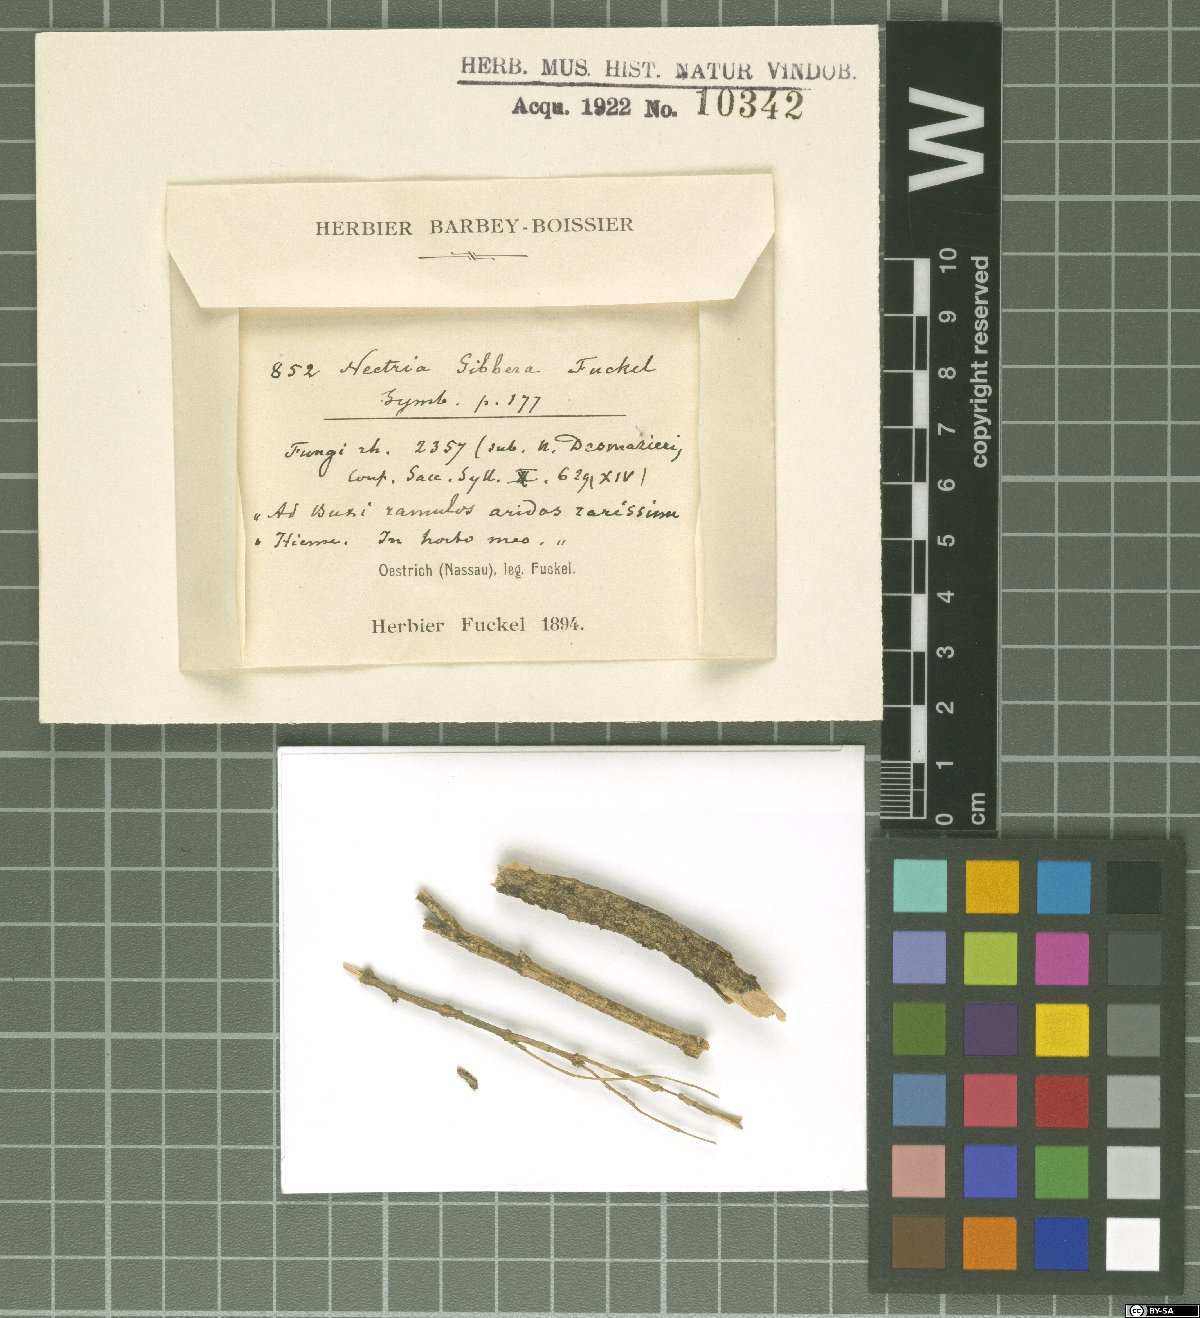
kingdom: Fungi
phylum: Ascomycota
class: Sordariomycetes
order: Hypocreales
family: Nectriaceae
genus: Nectria
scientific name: Nectria
